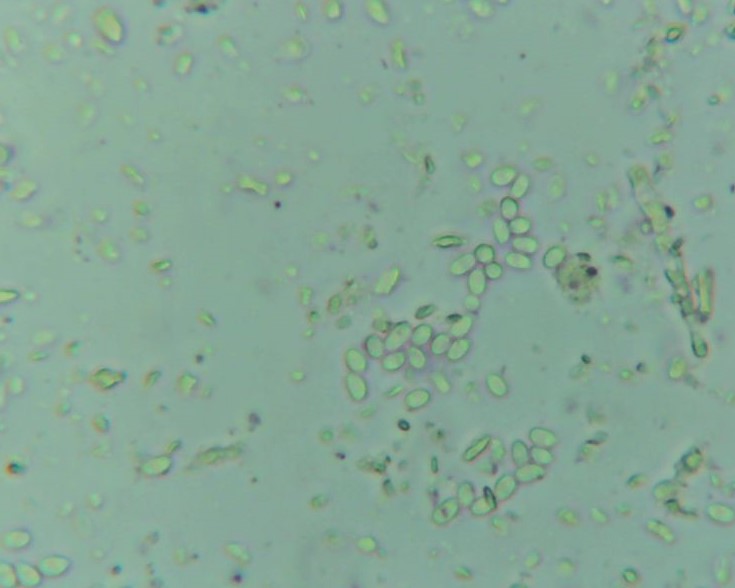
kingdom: Fungi
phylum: Basidiomycota
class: Agaricomycetes
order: Corticiales
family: Corticiaceae
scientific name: Corticiaceae
